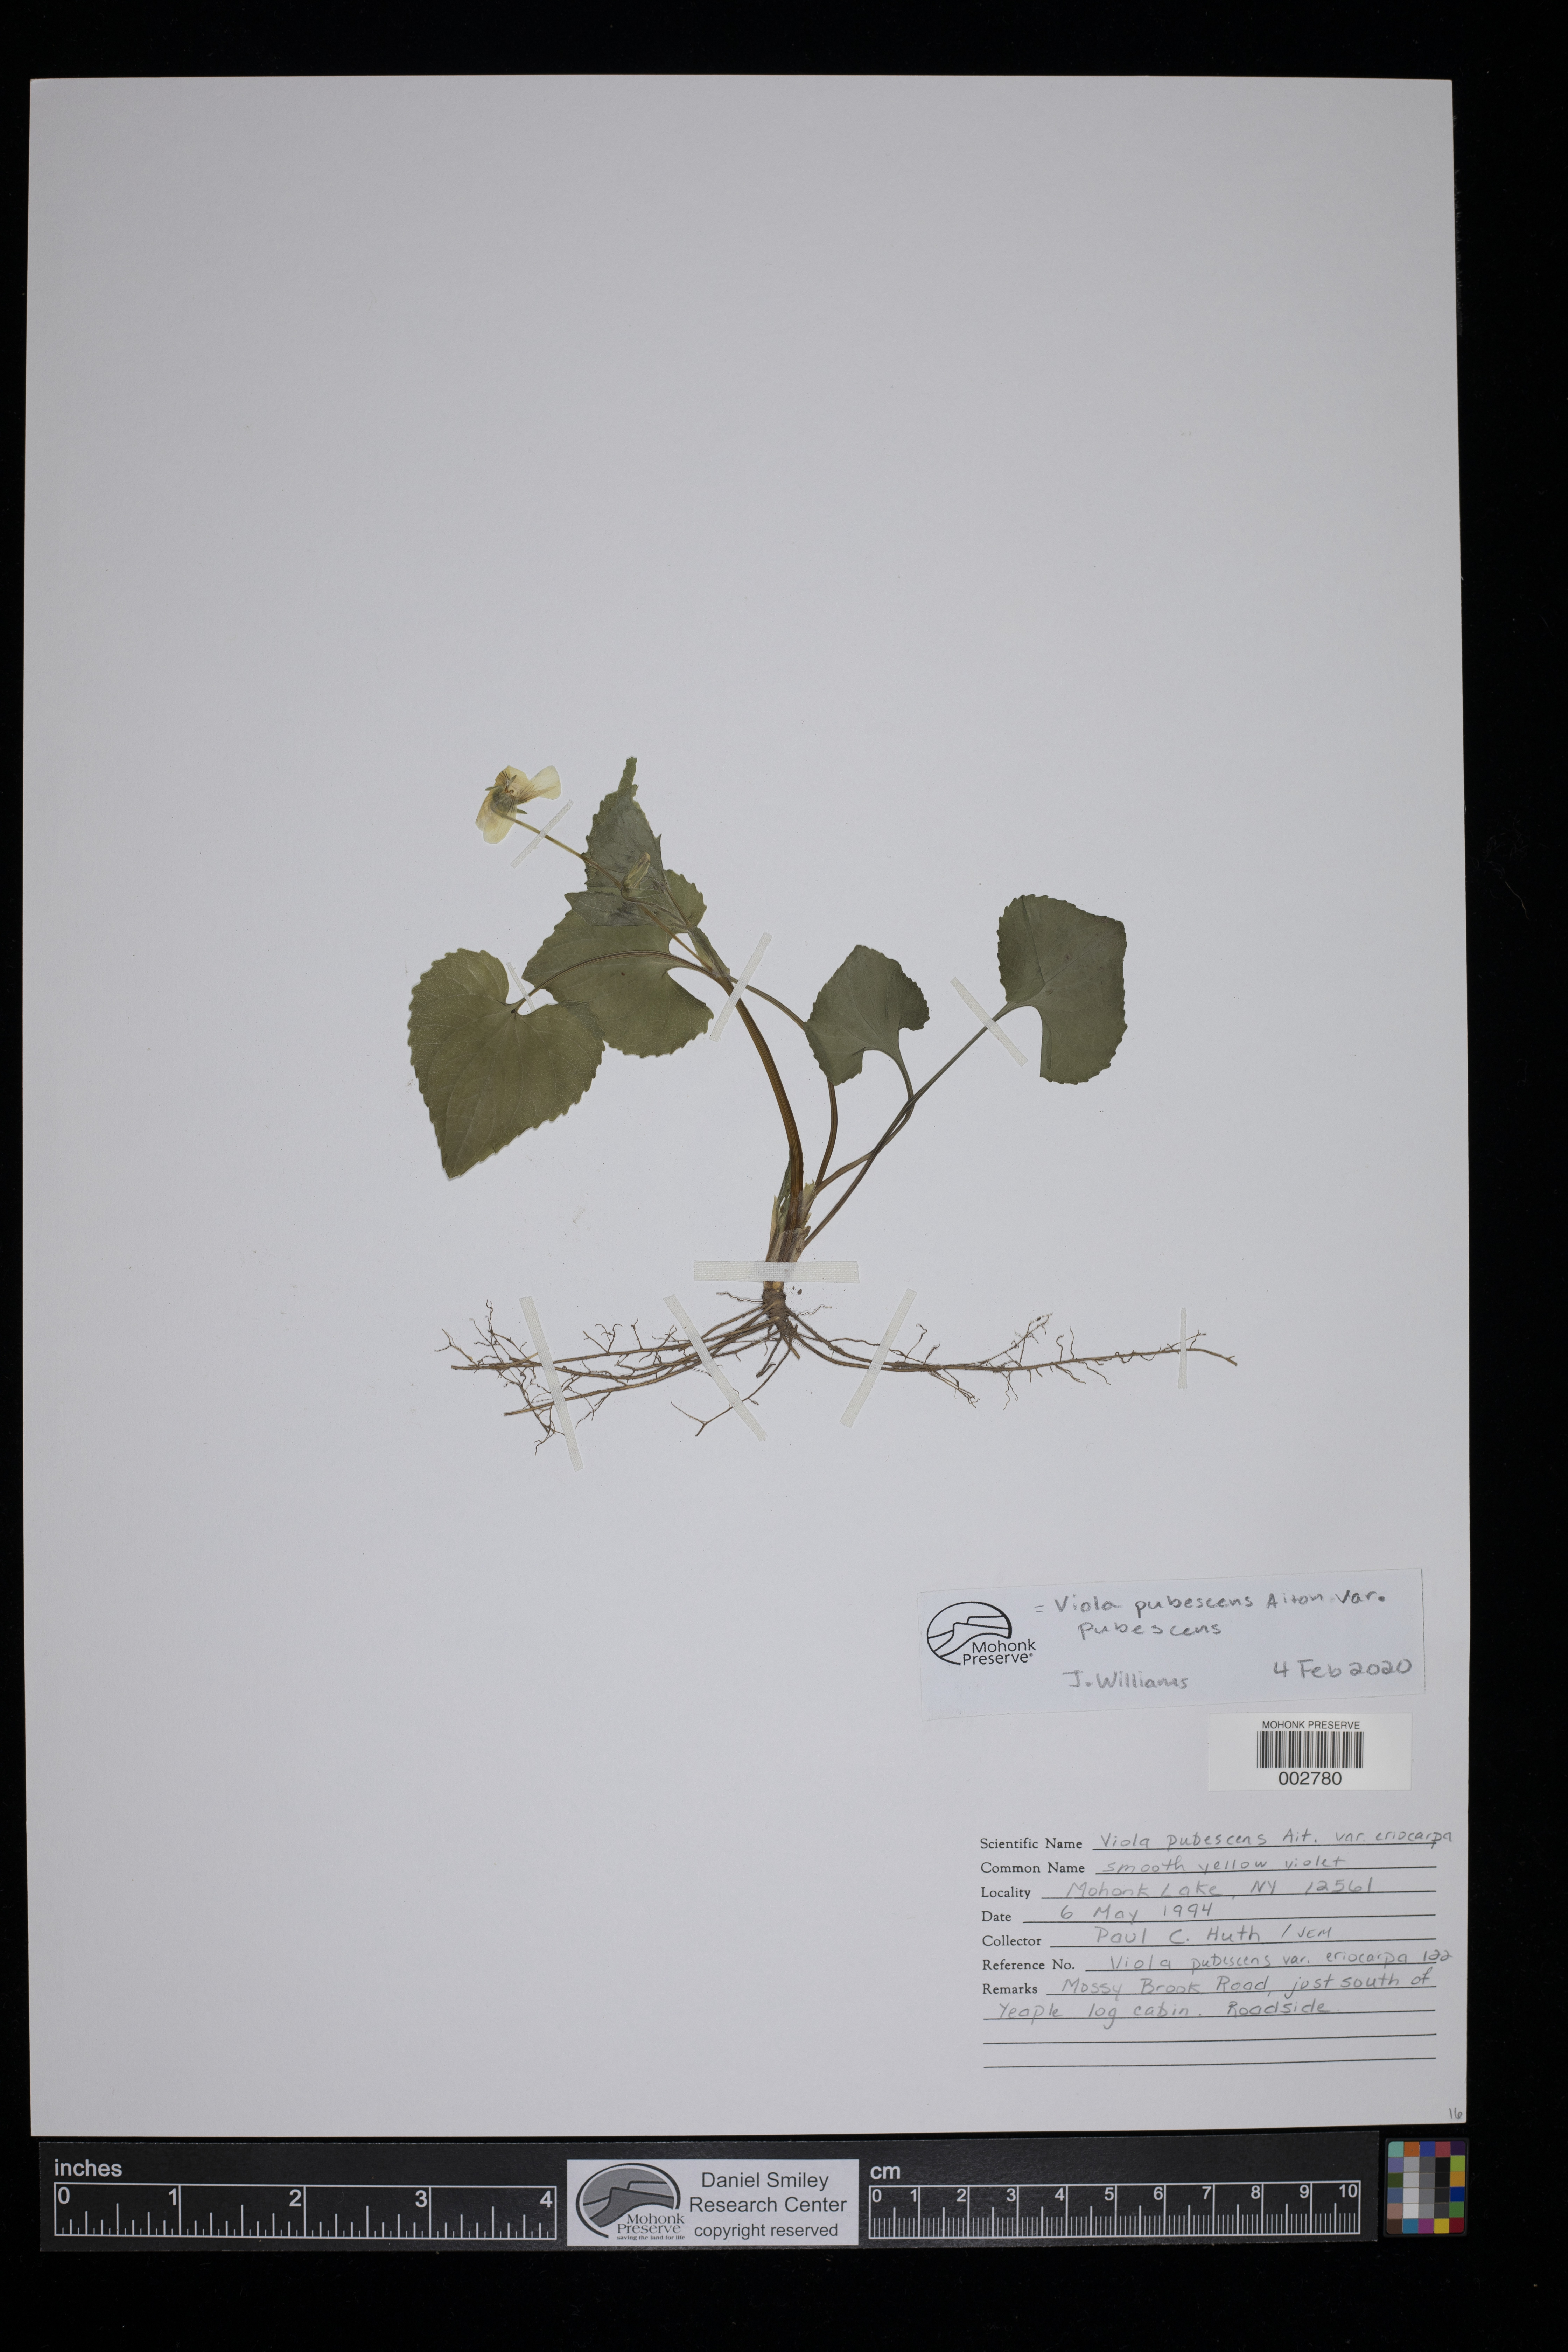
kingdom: Plantae
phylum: Tracheophyta
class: Magnoliopsida
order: Malpighiales
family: Violaceae
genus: Viola
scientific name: Viola pubescens
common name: Yellow forest violet
